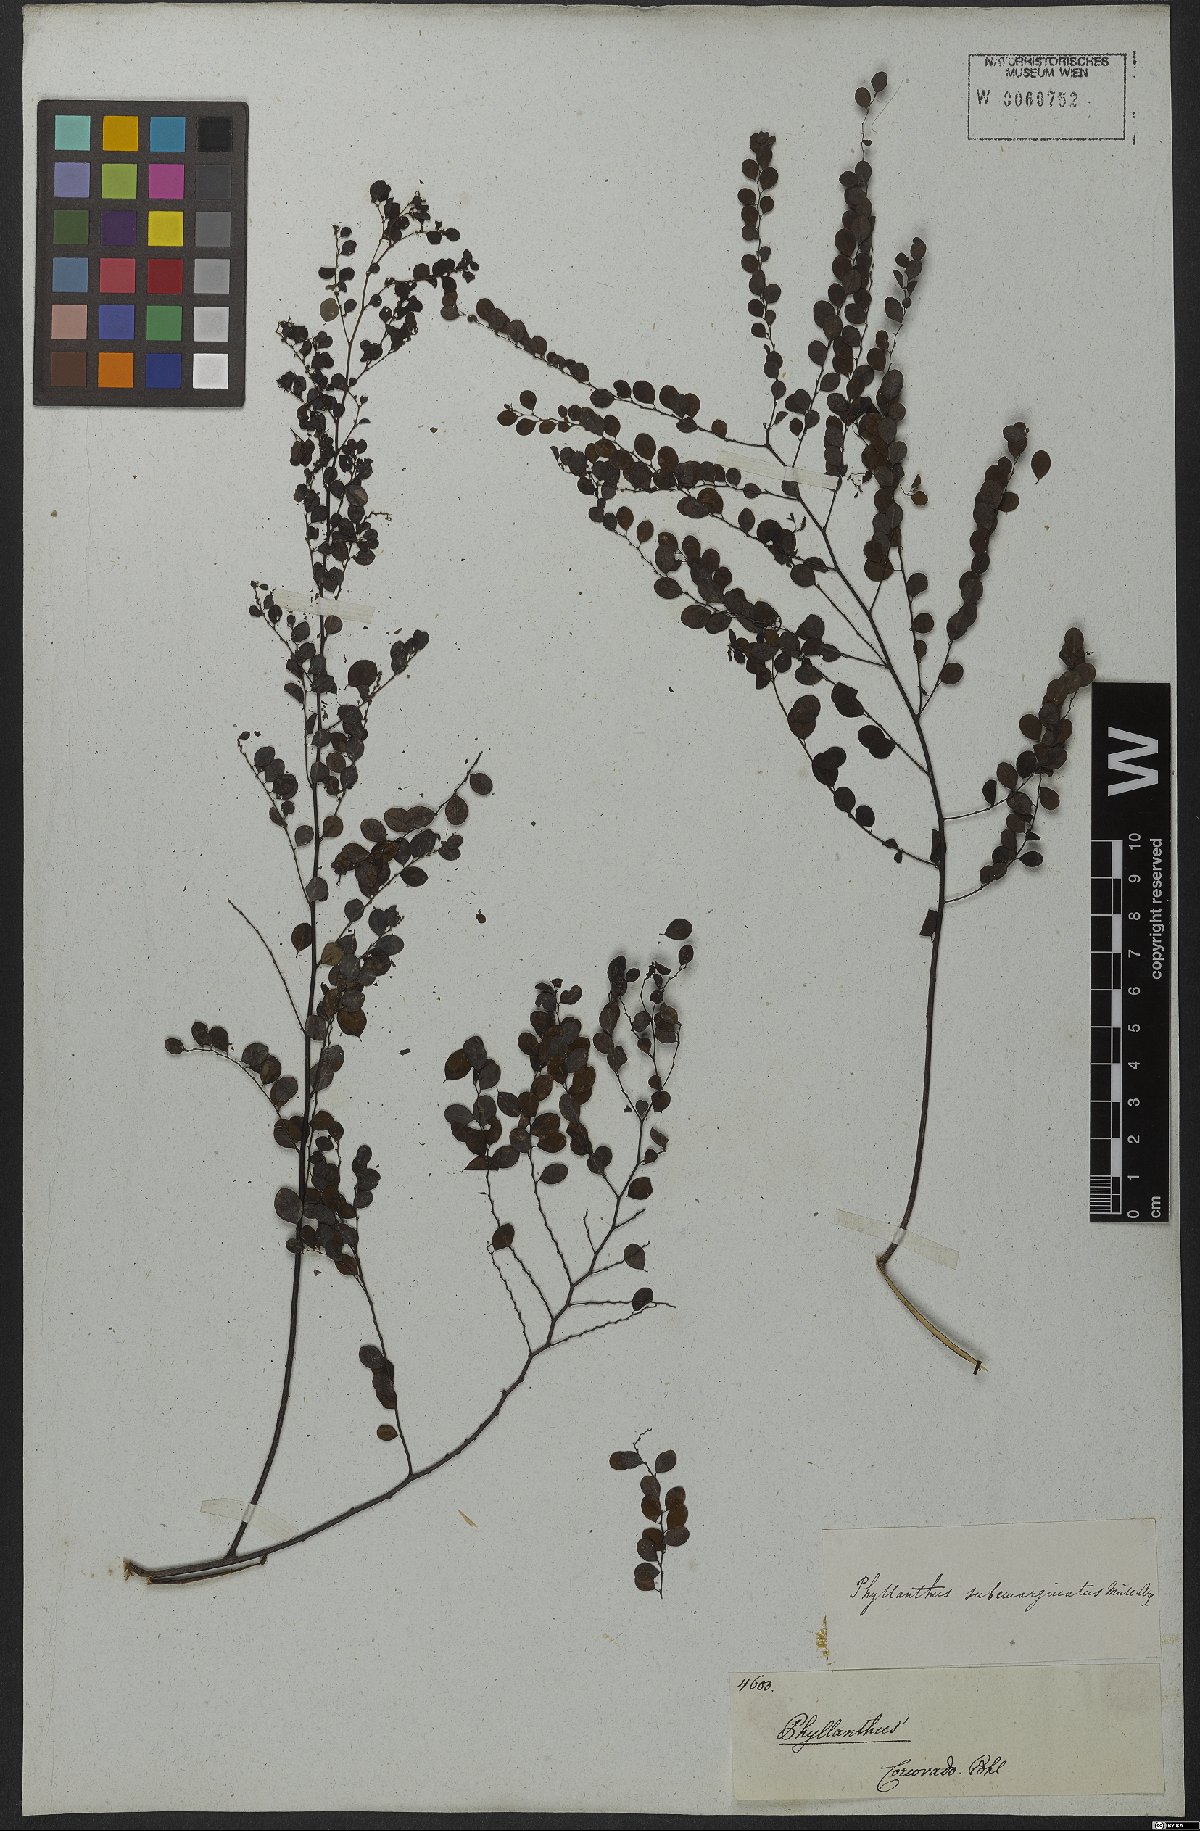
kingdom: Plantae
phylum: Tracheophyta
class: Magnoliopsida
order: Malpighiales
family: Phyllanthaceae
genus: Phyllanthus
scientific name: Phyllanthus subemarginatus
